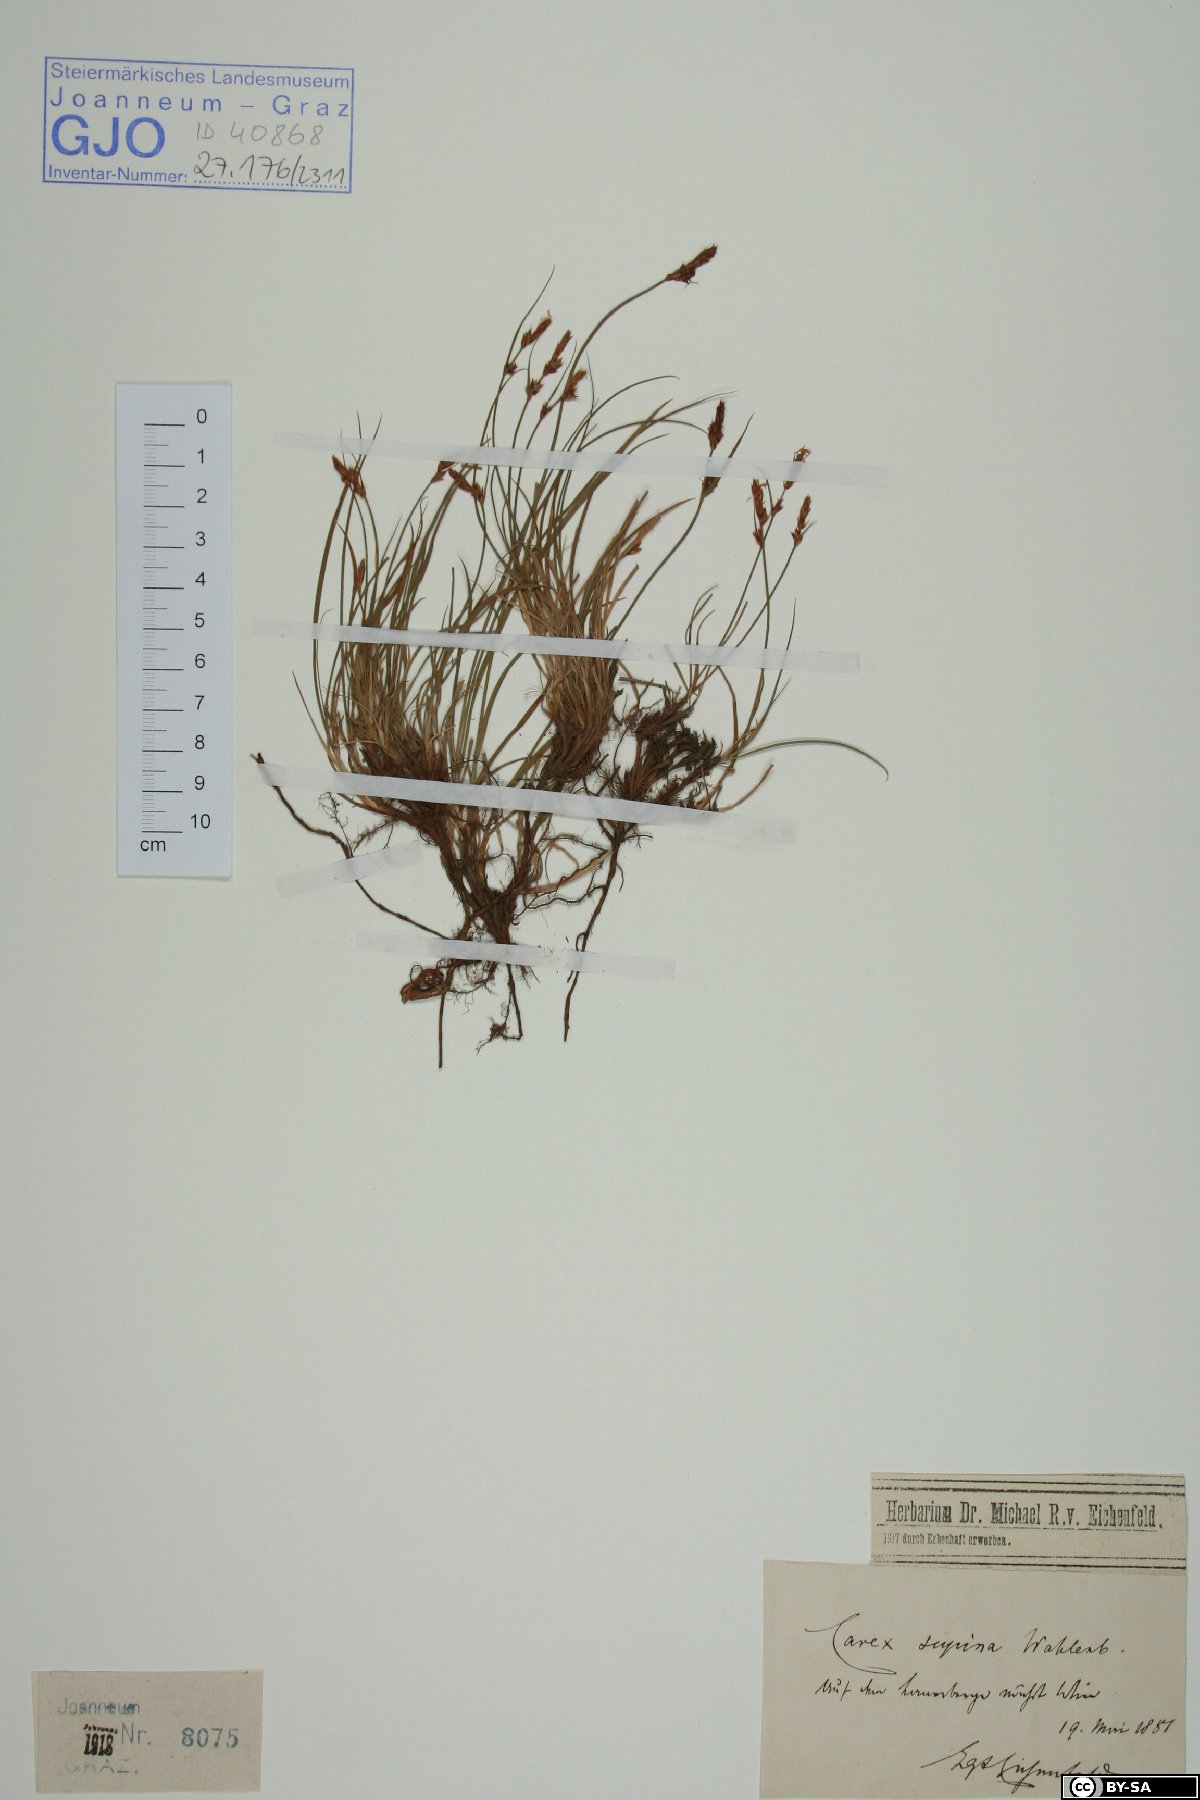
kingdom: Plantae
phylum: Tracheophyta
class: Liliopsida
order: Poales
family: Cyperaceae
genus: Carex
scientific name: Carex supina
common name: Lying-back sedge
